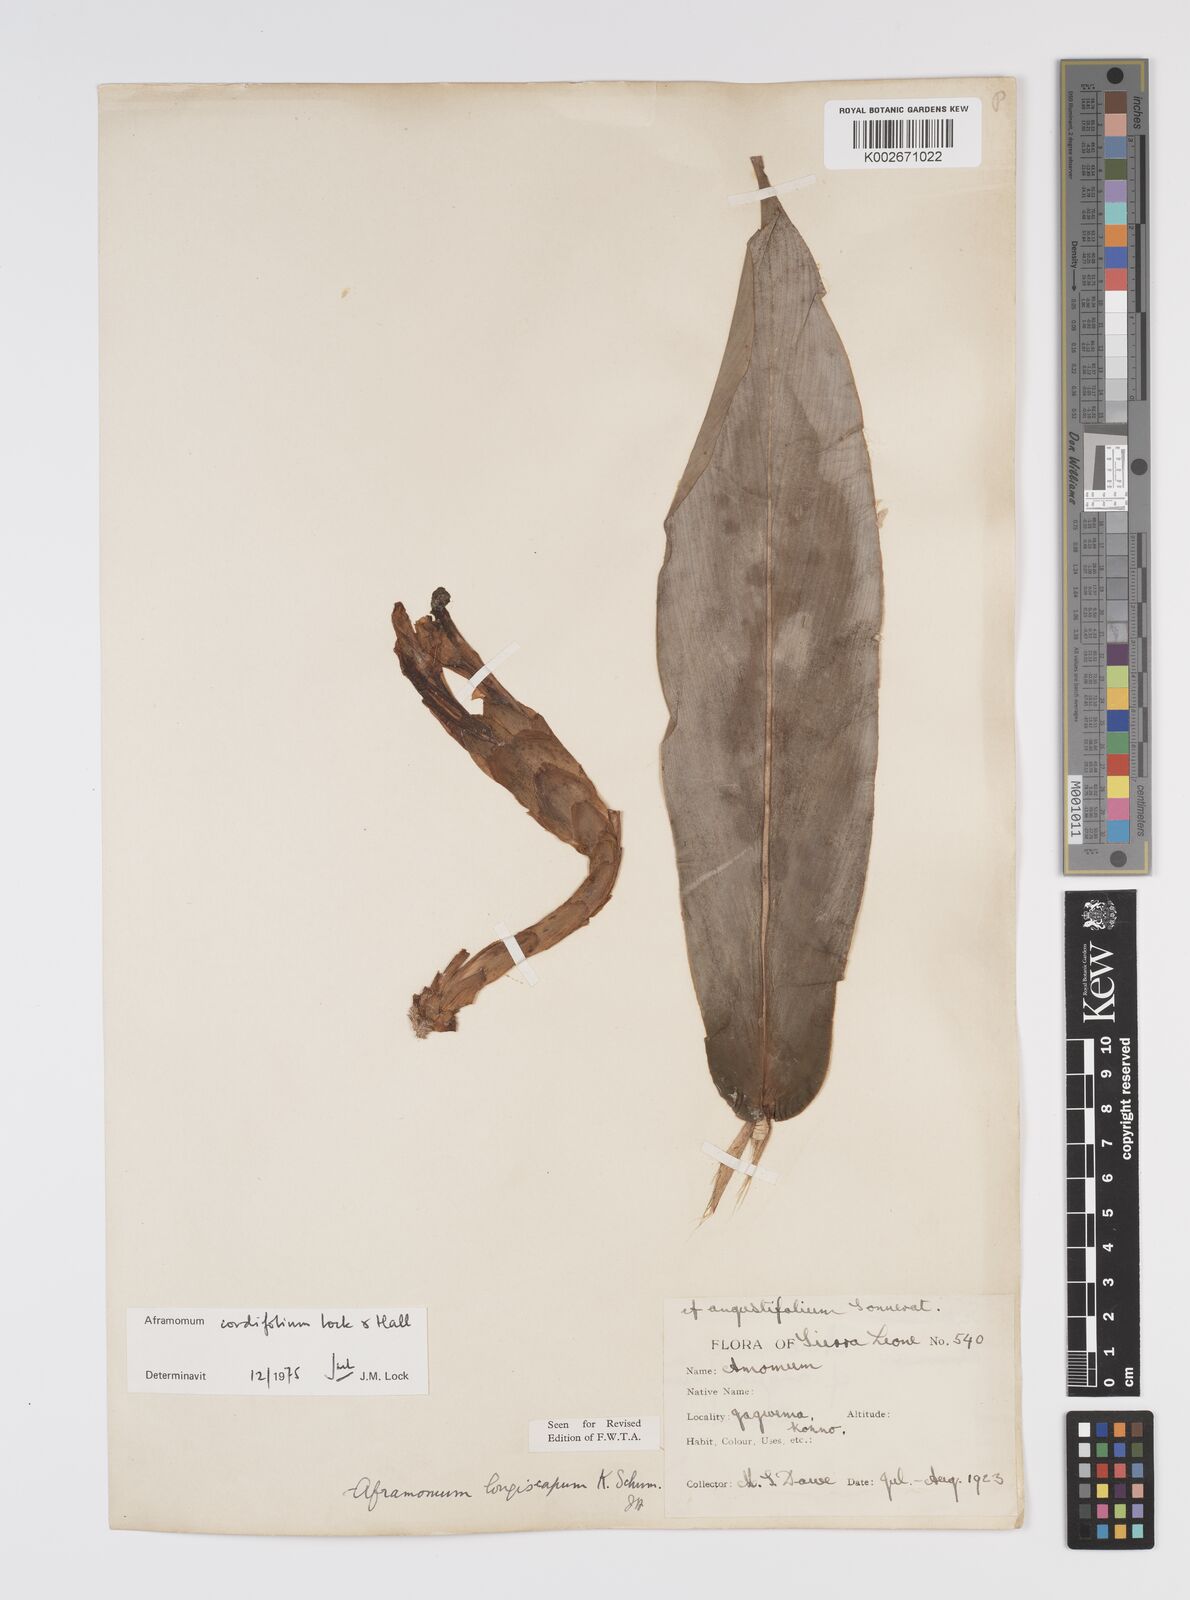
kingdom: Plantae
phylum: Tracheophyta
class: Liliopsida
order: Zingiberales
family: Zingiberaceae
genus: Aframomum
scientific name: Aframomum cordifolium
